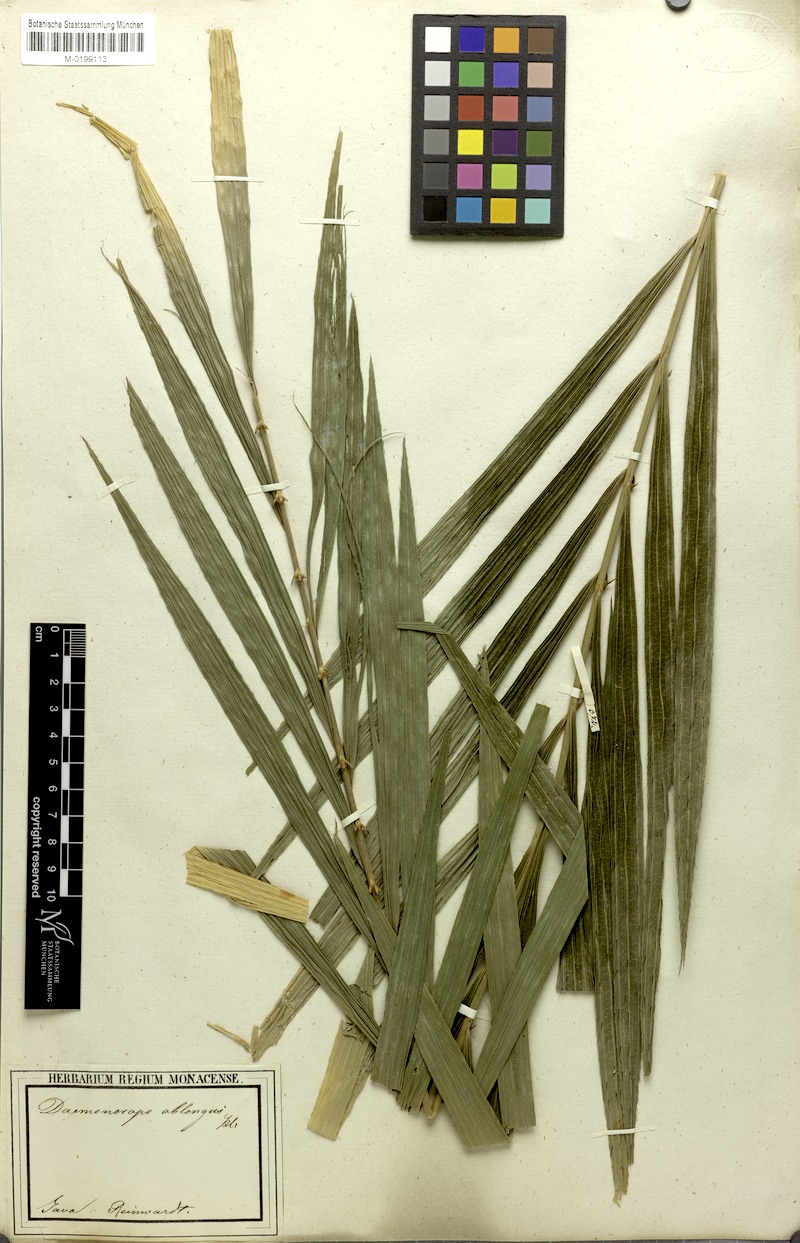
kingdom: Plantae
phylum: Tracheophyta
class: Liliopsida
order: Arecales
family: Arecaceae
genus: Calamus
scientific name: Calamus oblongus
